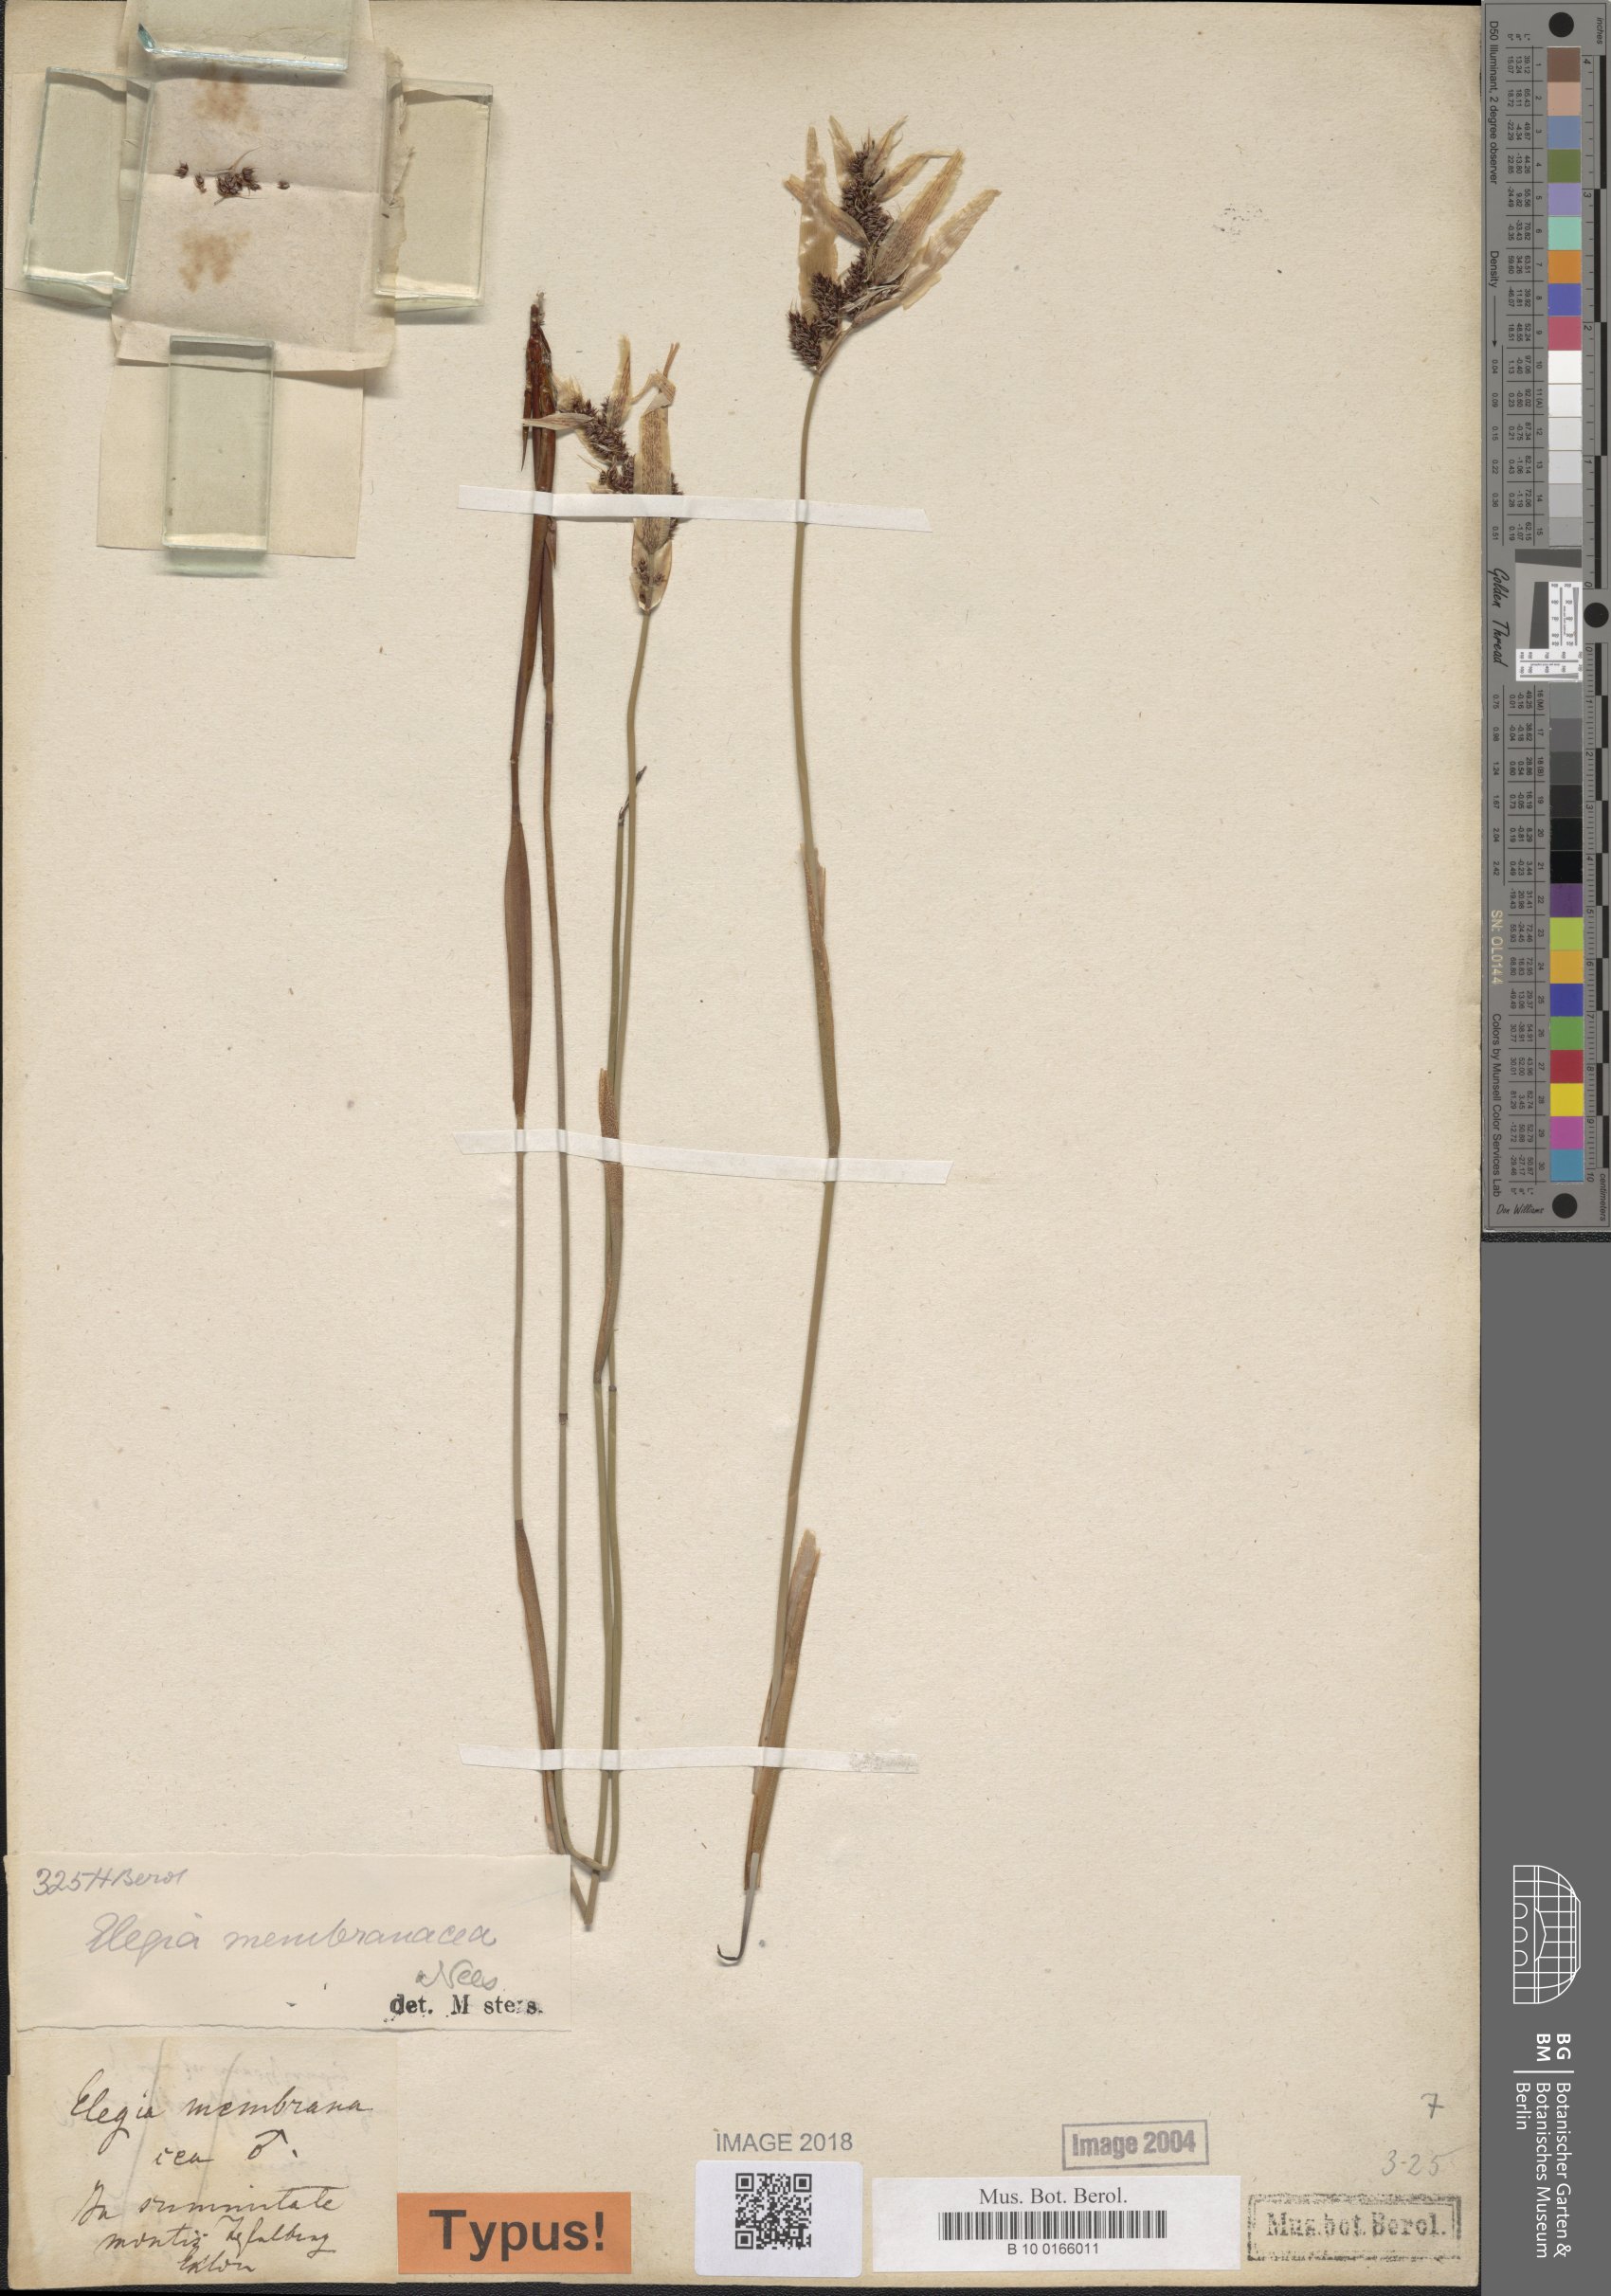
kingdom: Plantae
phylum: Tracheophyta
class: Liliopsida
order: Poales
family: Restionaceae
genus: Elegia
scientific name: Elegia intermedia
